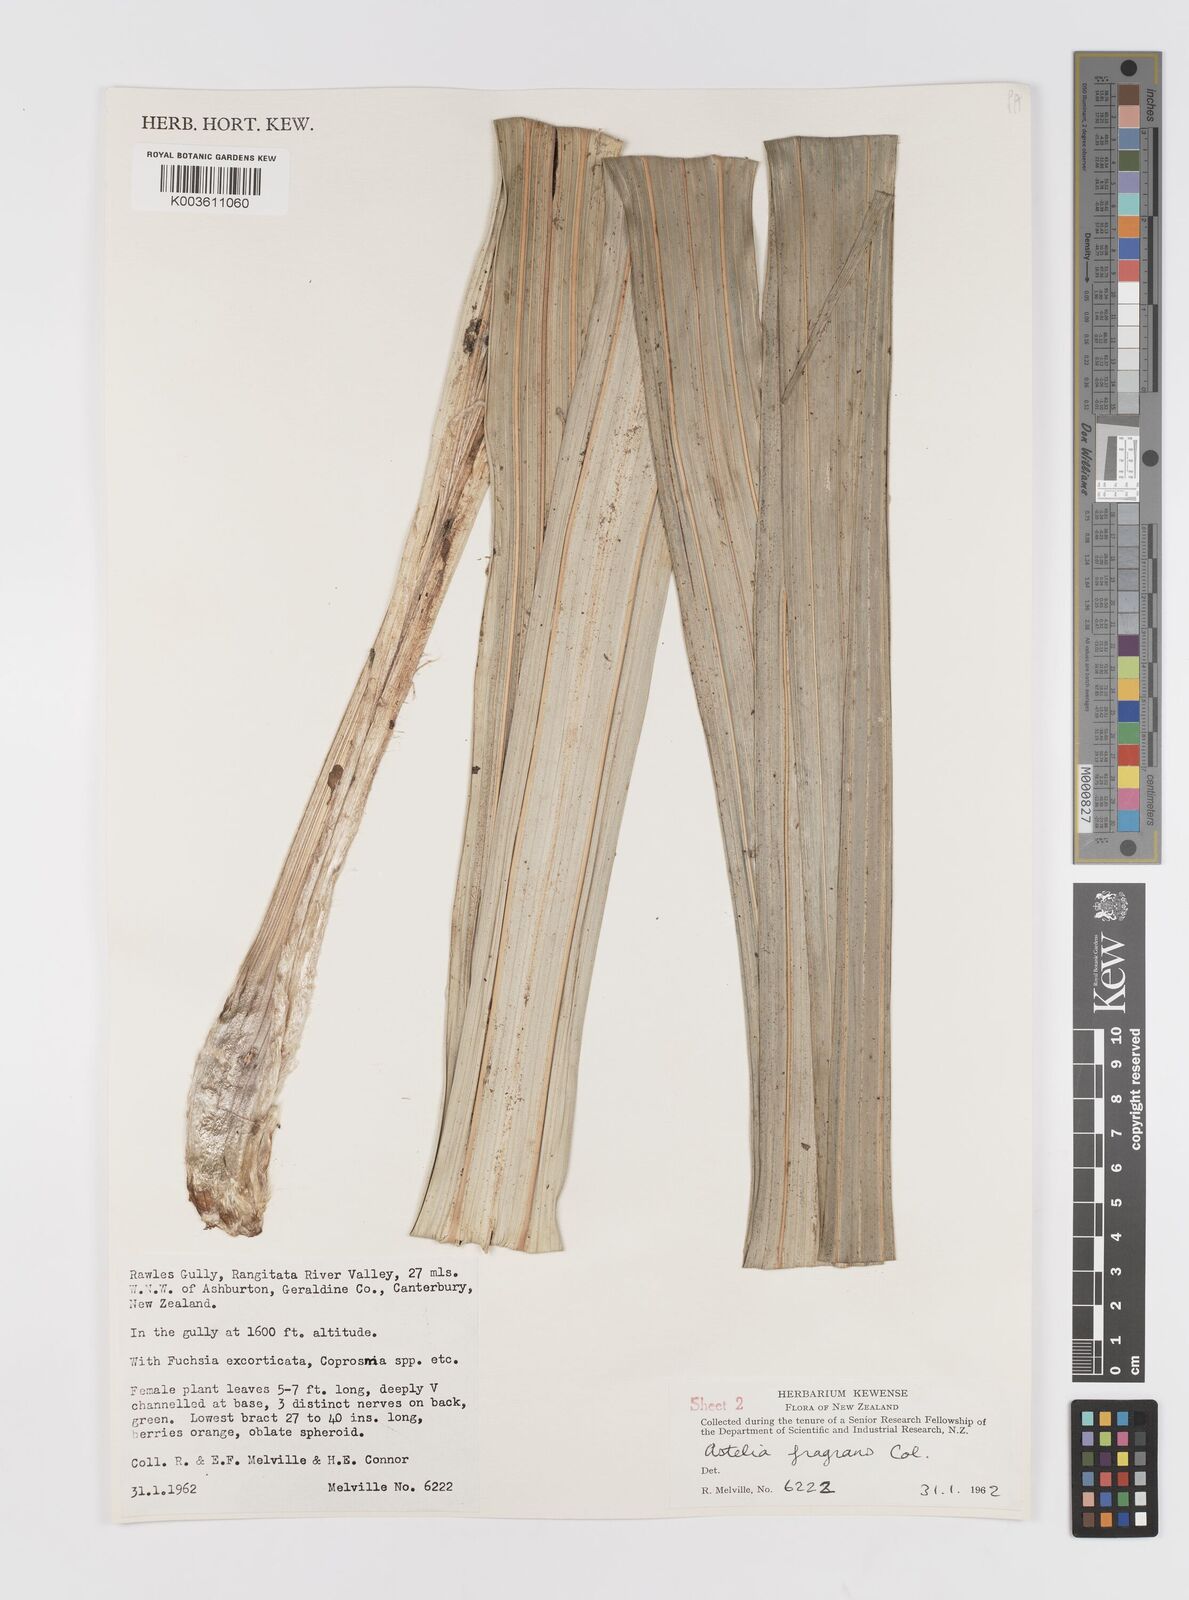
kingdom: Plantae
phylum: Tracheophyta
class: Liliopsida
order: Asparagales
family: Asteliaceae
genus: Astelia
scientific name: Astelia fragrans
